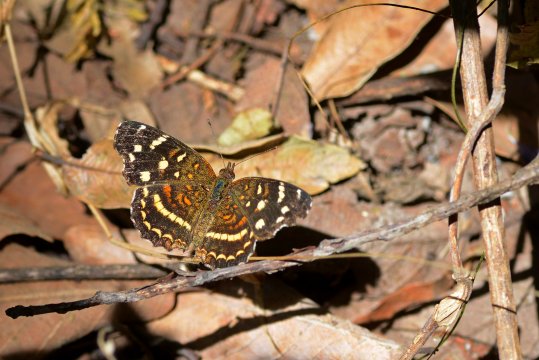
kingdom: Animalia
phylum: Arthropoda
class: Insecta
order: Lepidoptera
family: Nymphalidae
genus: Anthanassa
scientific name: Anthanassa ptolyca
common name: Black Crescent
